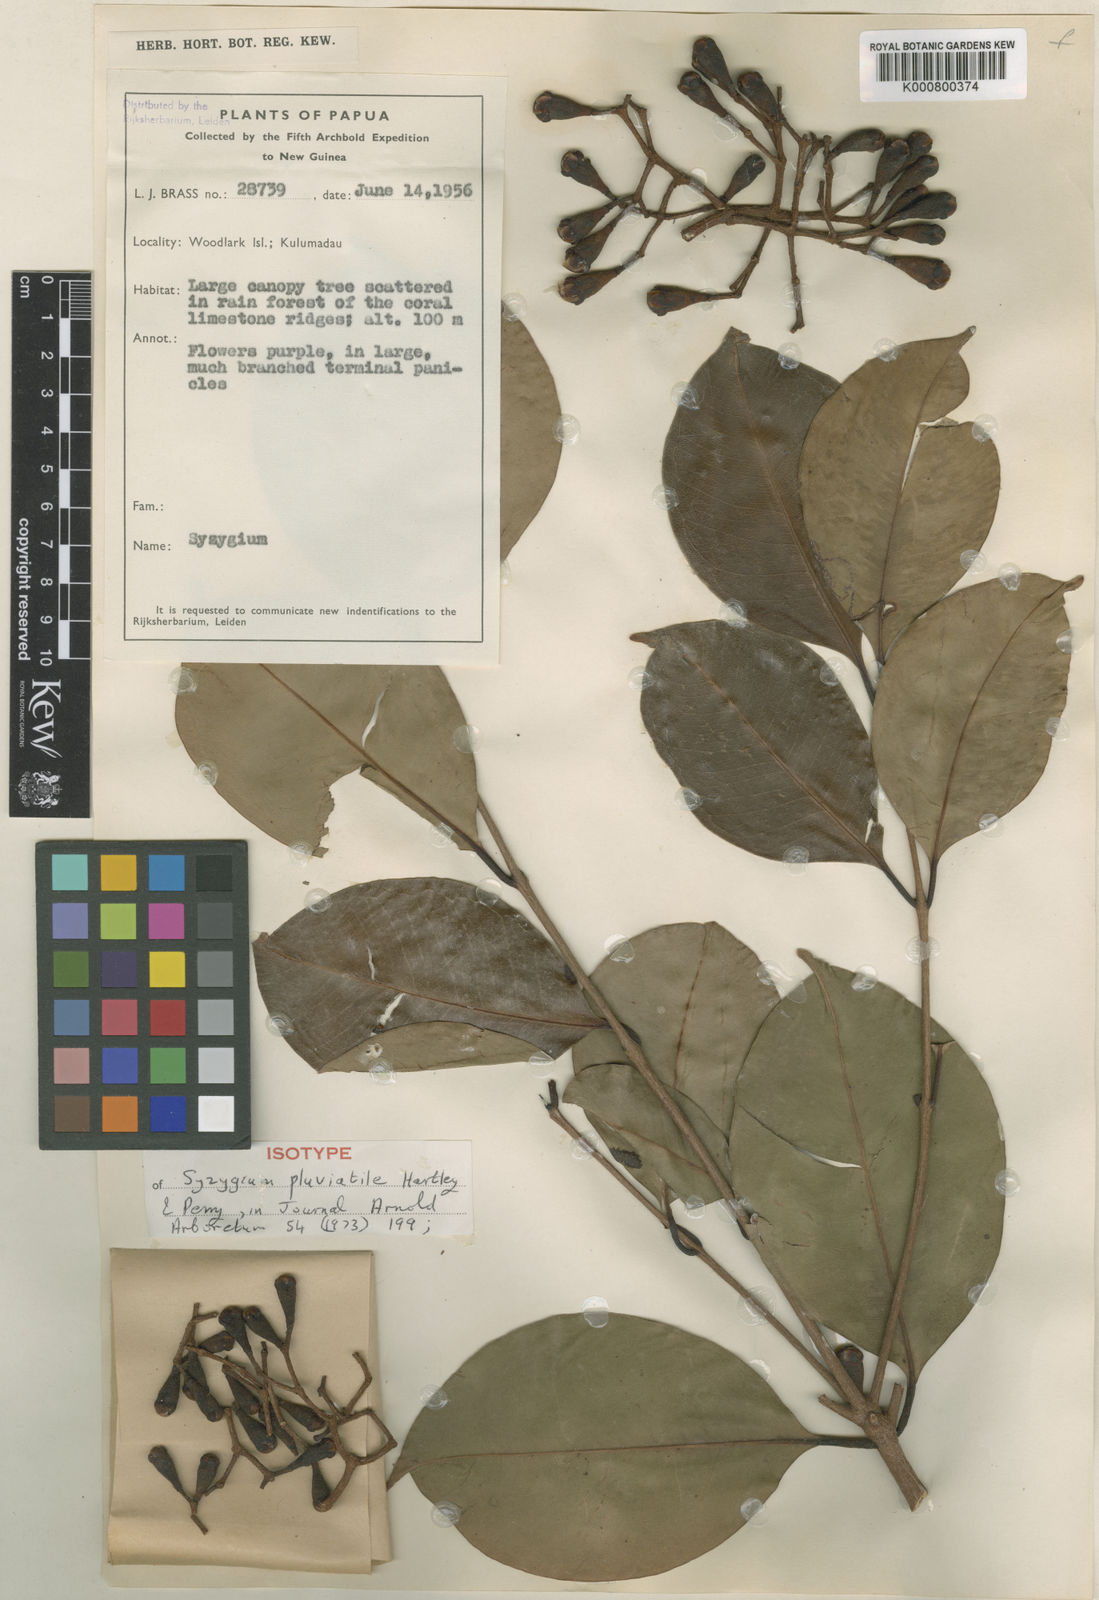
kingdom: Plantae
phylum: Tracheophyta
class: Magnoliopsida
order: Myrtales
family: Myrtaceae
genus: Syzygium
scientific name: Syzygium pluviatile
